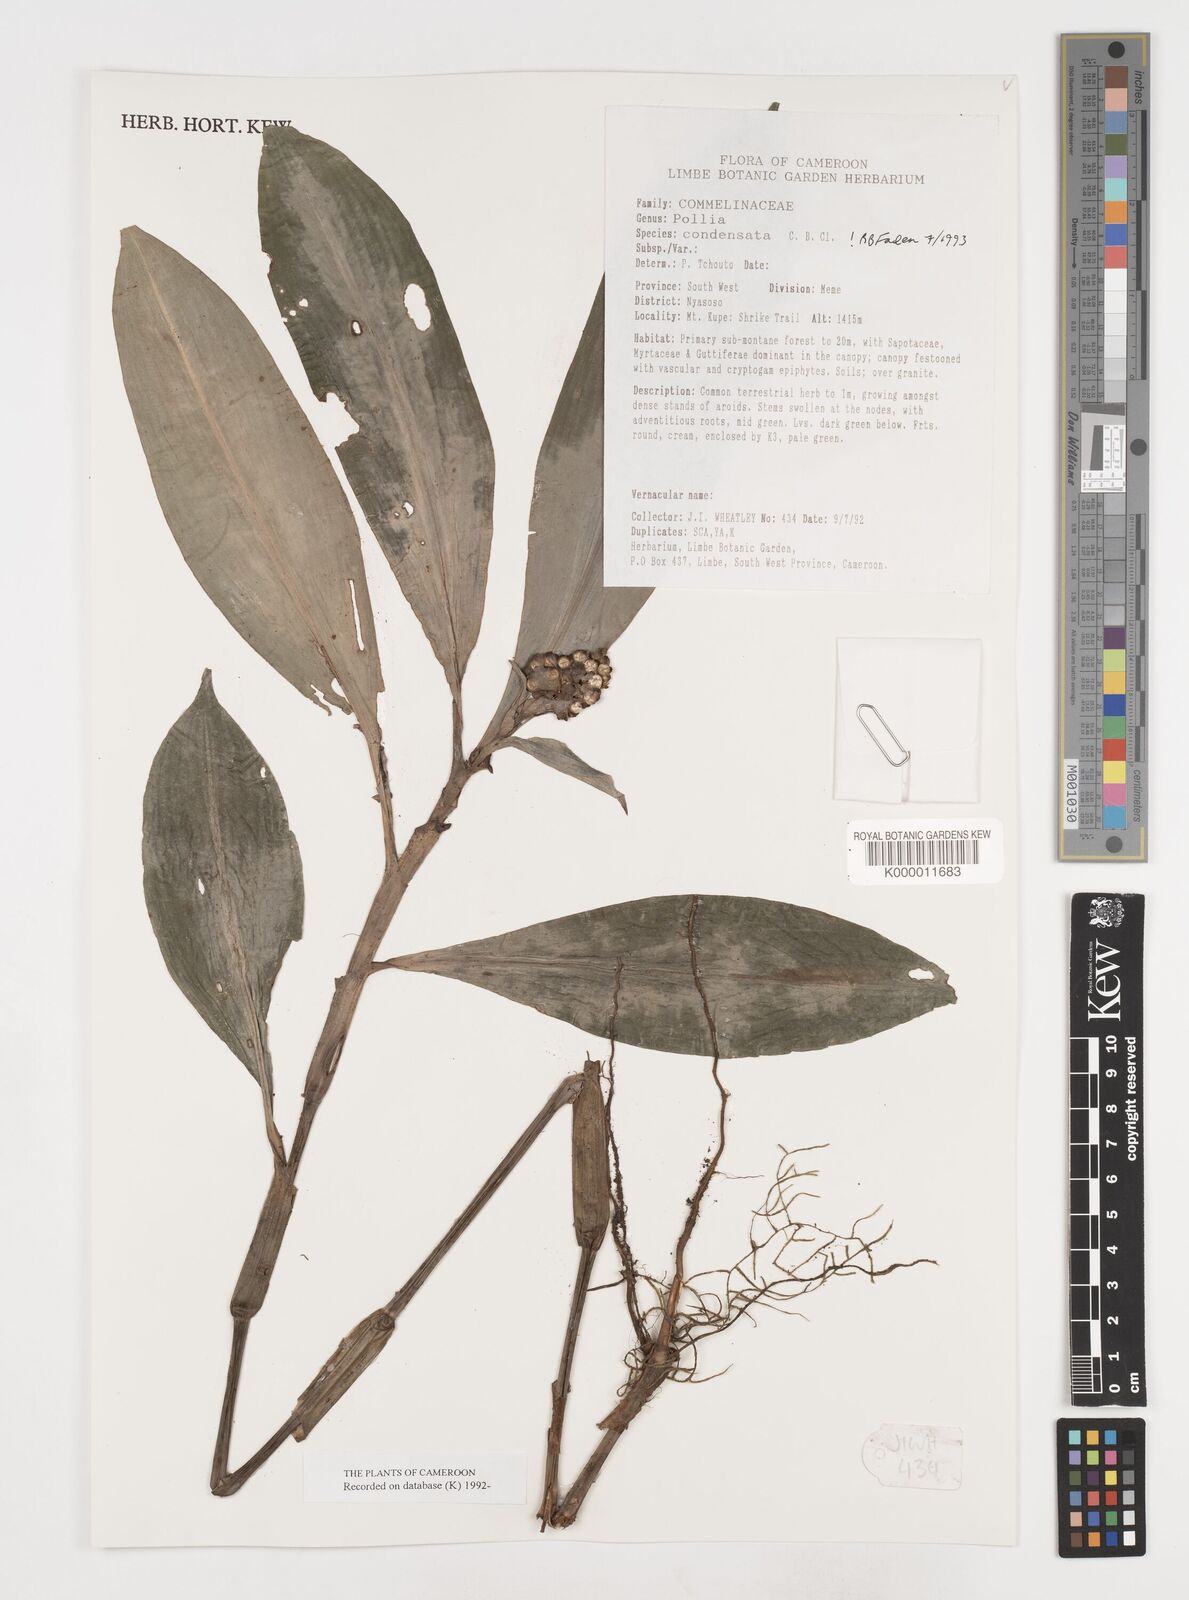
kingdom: Plantae
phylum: Tracheophyta
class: Liliopsida
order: Commelinales
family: Commelinaceae
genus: Pollia
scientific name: Pollia condensata
